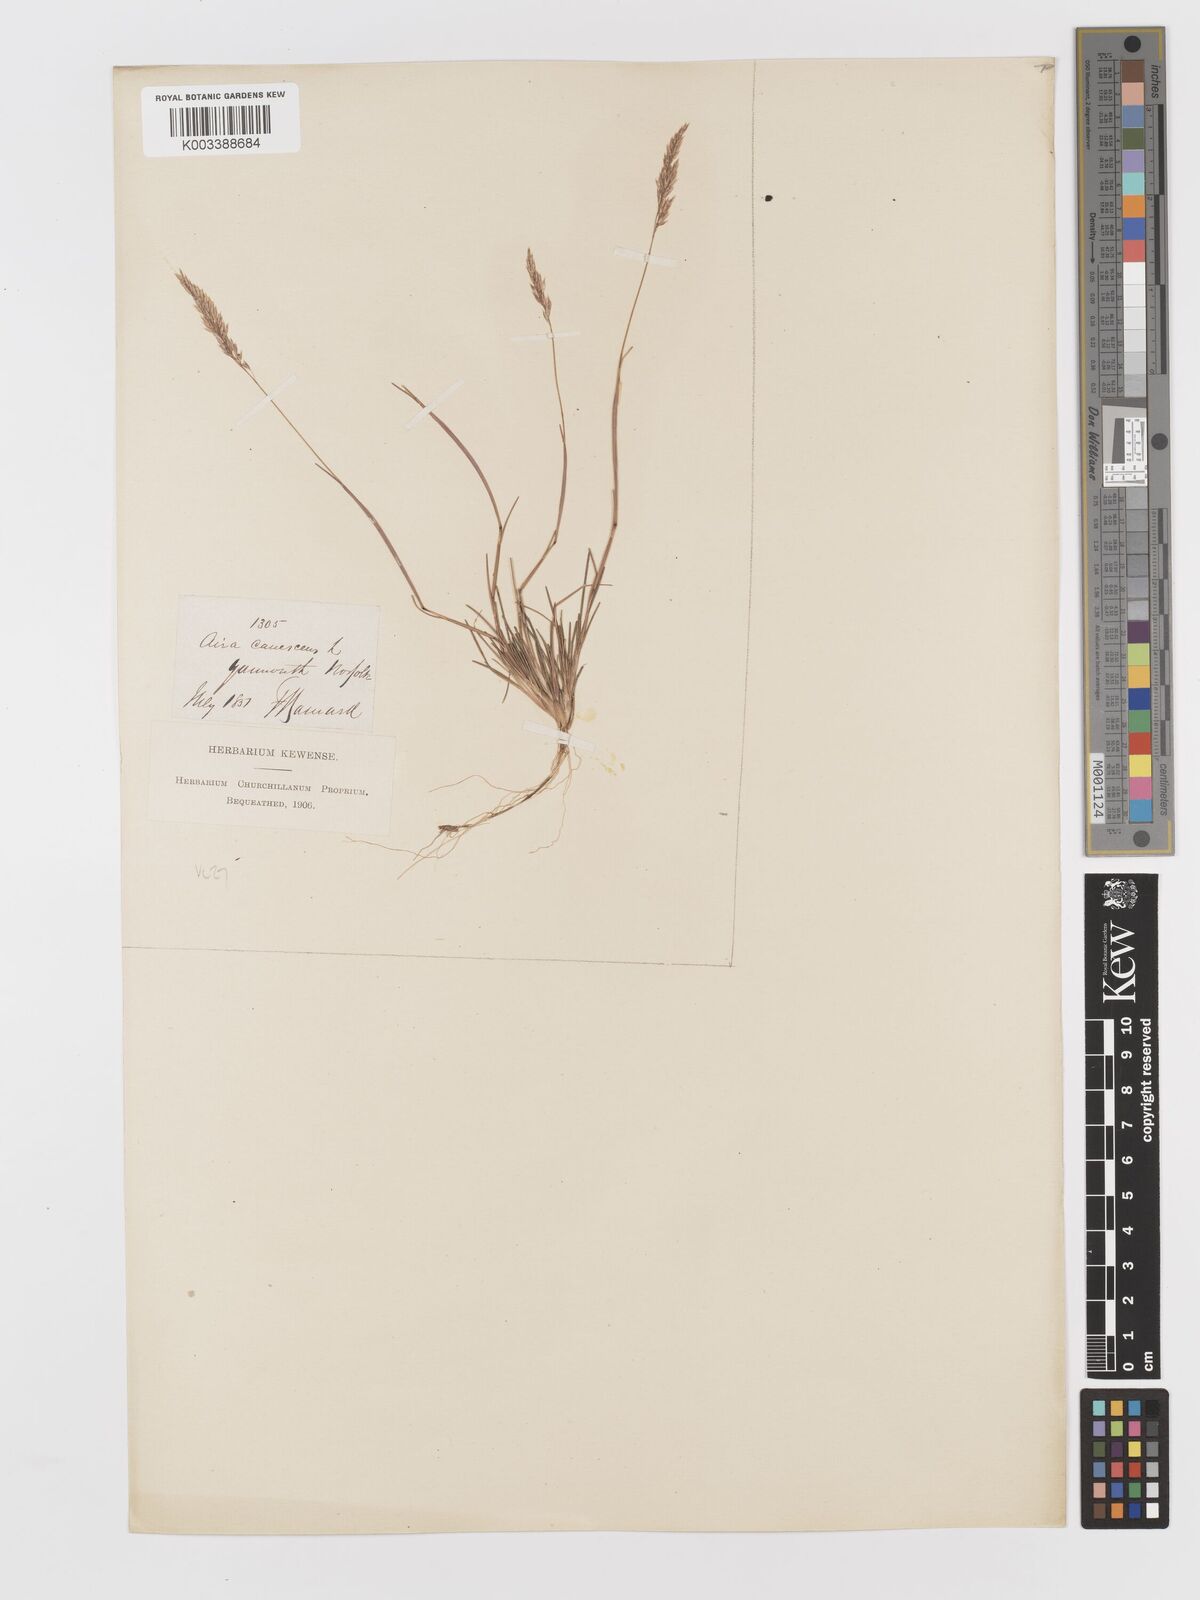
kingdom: Plantae
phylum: Tracheophyta
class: Liliopsida
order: Poales
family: Poaceae
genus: Corynephorus
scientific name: Corynephorus canescens
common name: Grey hair-grass
